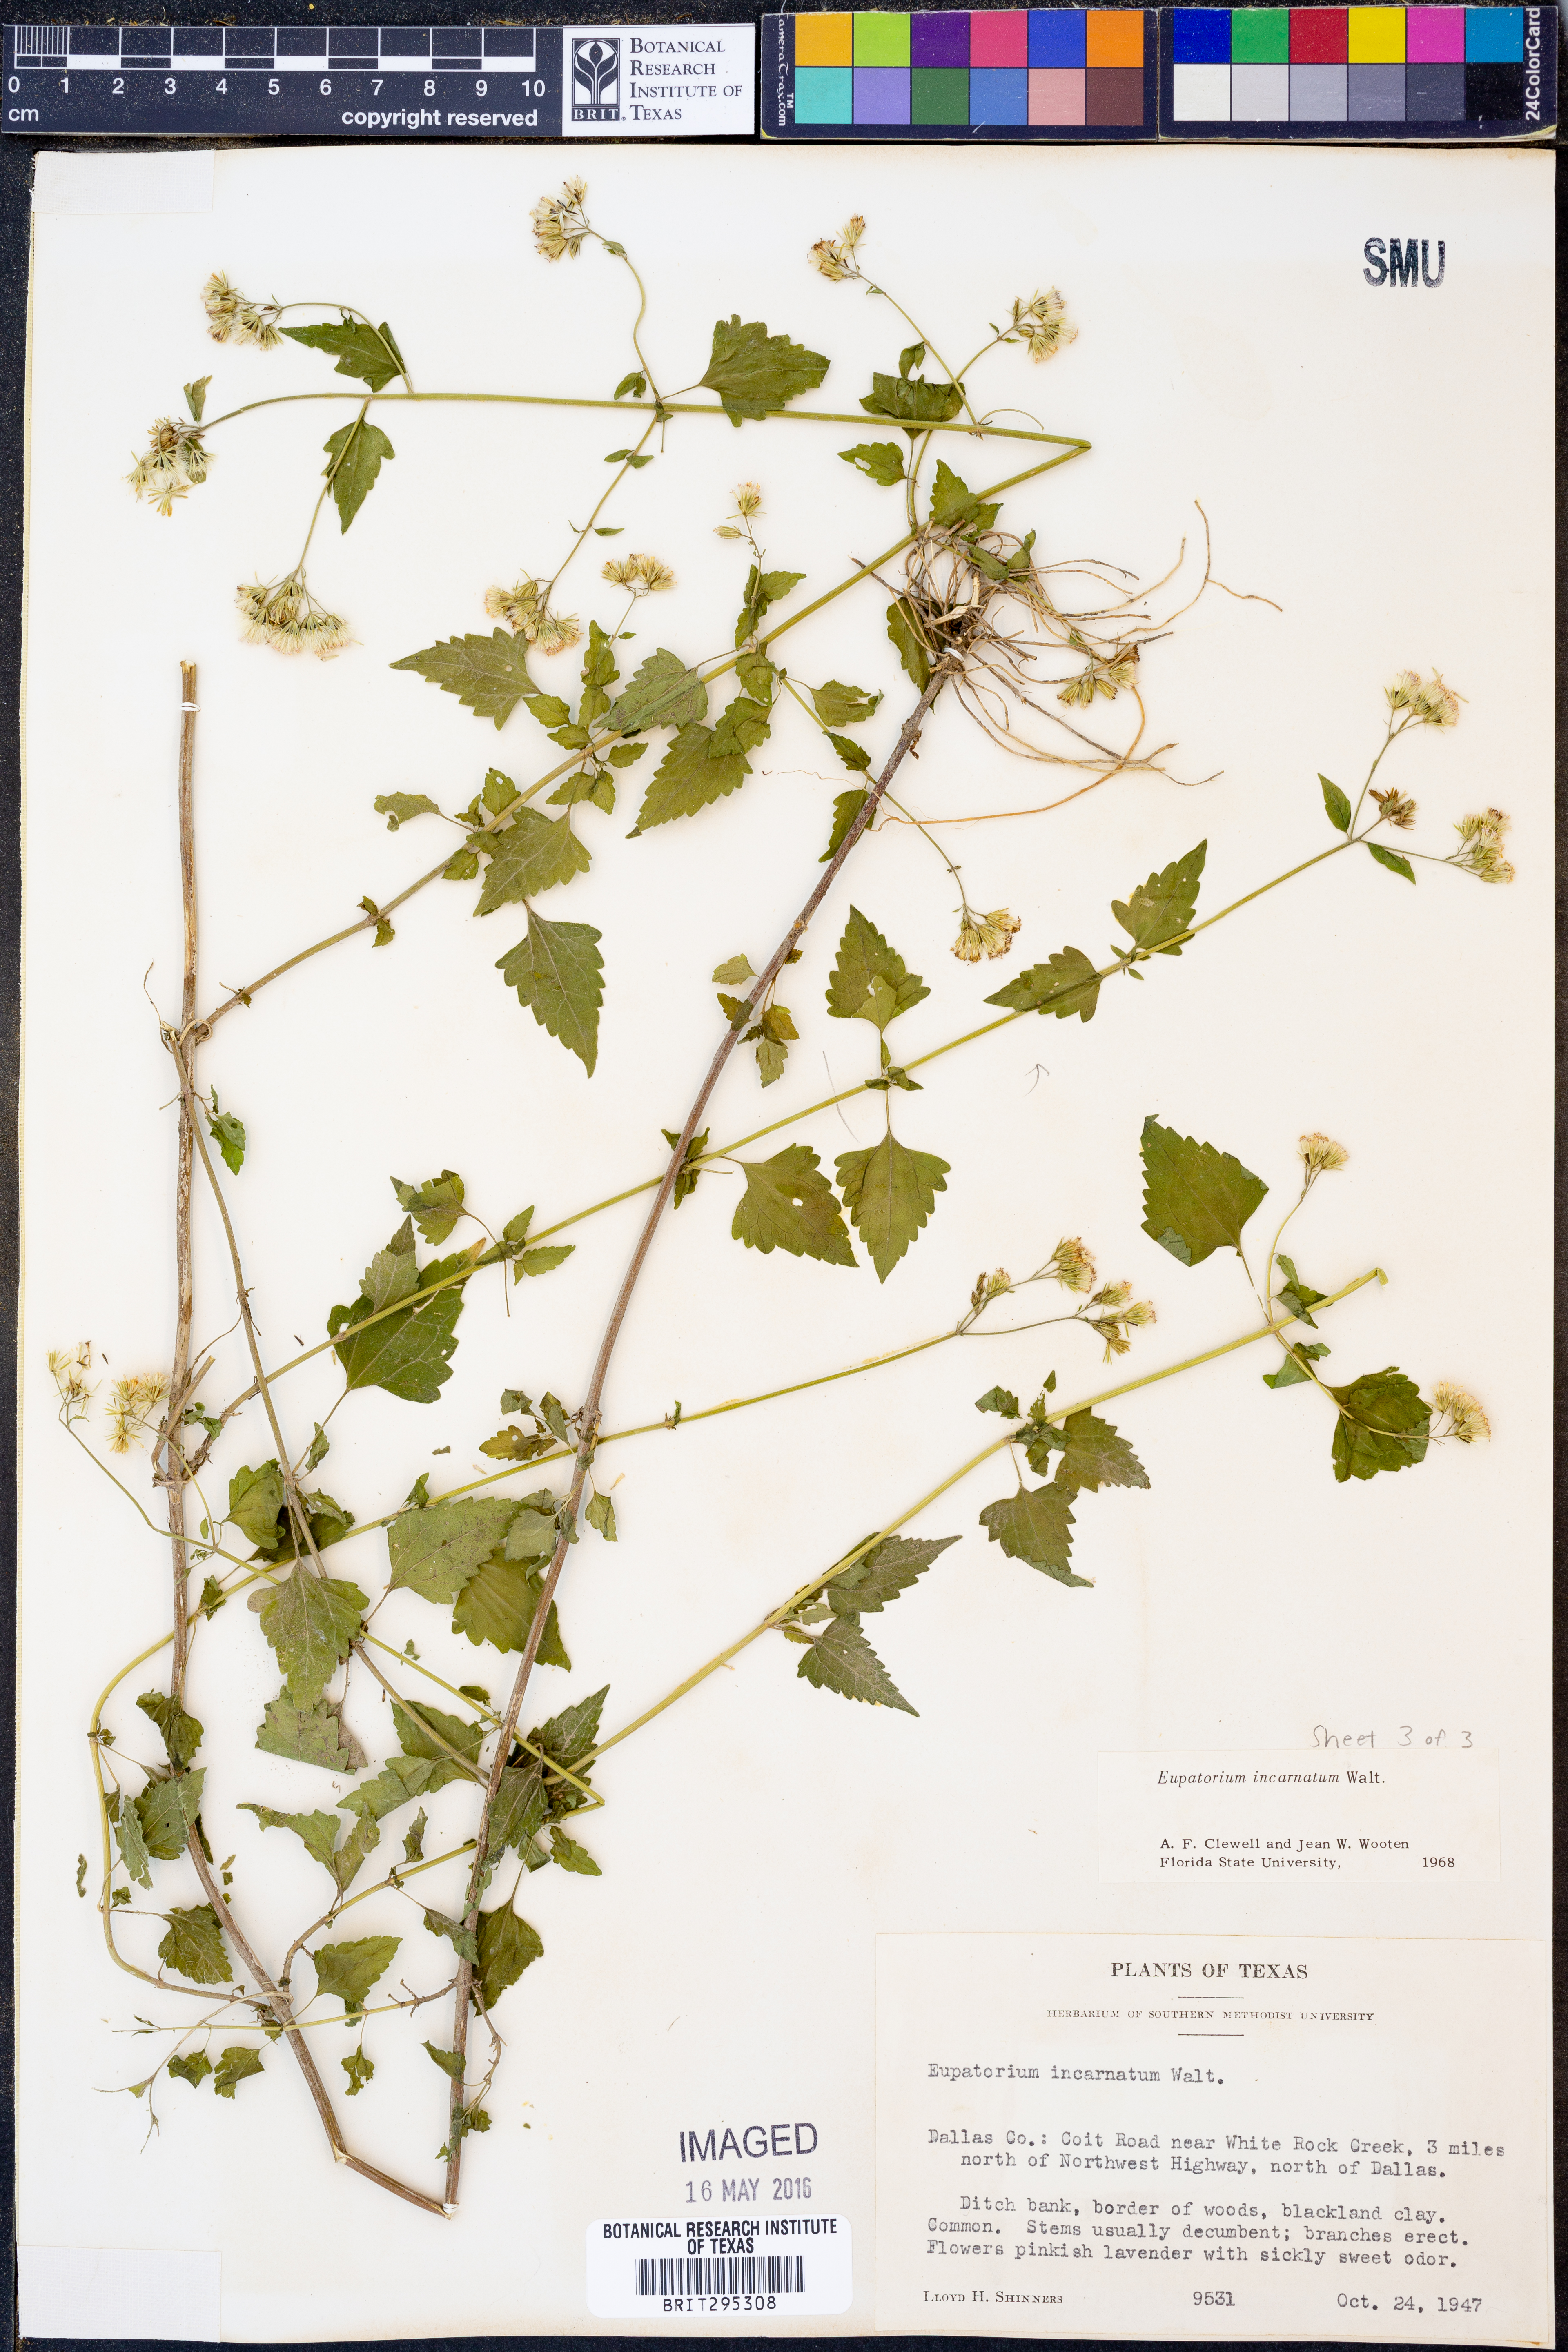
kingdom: Plantae
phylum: Tracheophyta
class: Magnoliopsida
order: Asterales
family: Asteraceae
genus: Fleischmannia
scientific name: Fleischmannia incarnata
